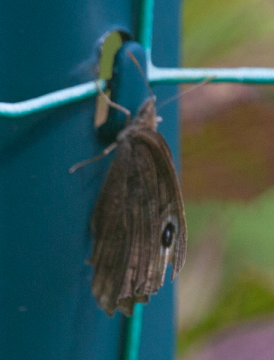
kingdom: Animalia
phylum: Arthropoda
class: Insecta
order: Lepidoptera
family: Nymphalidae
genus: Cercyonis
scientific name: Cercyonis pegala
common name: Common Wood-Nymph
